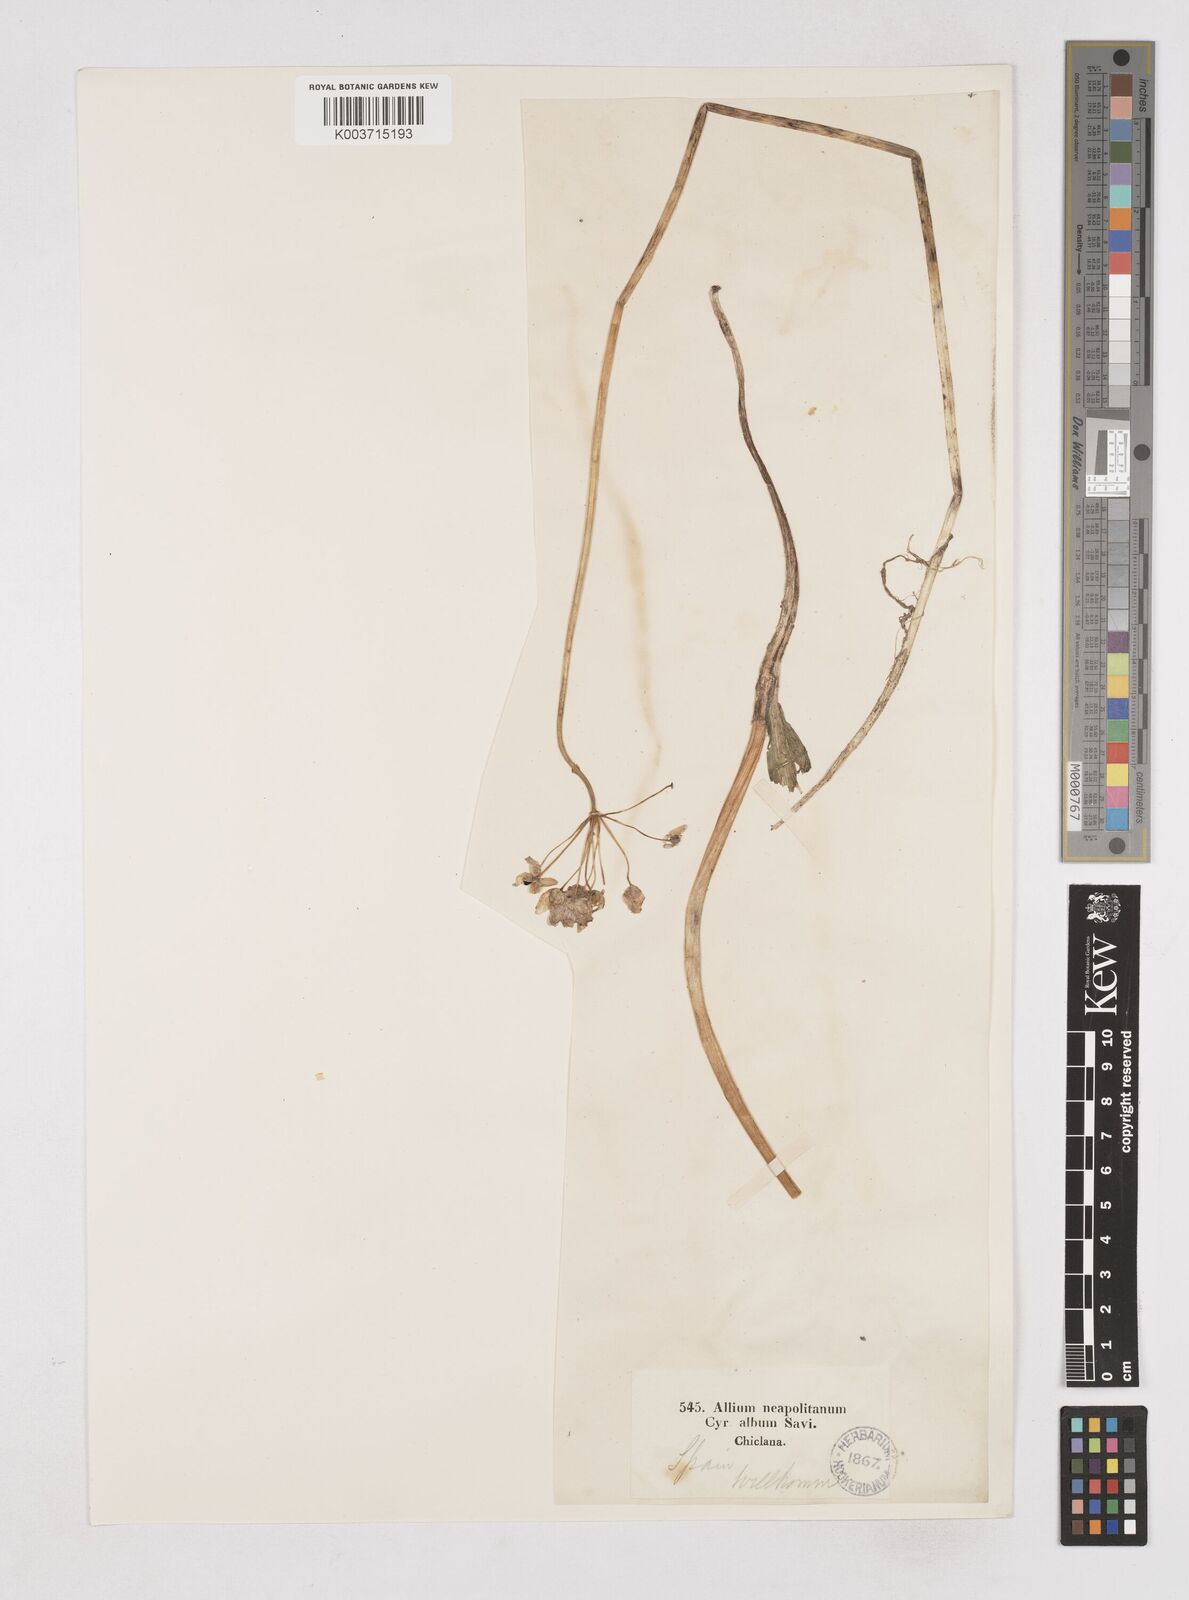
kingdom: Plantae
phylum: Tracheophyta
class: Liliopsida
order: Asparagales
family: Amaryllidaceae
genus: Allium
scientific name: Allium neapolitanum
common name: Neapolitan garlic
